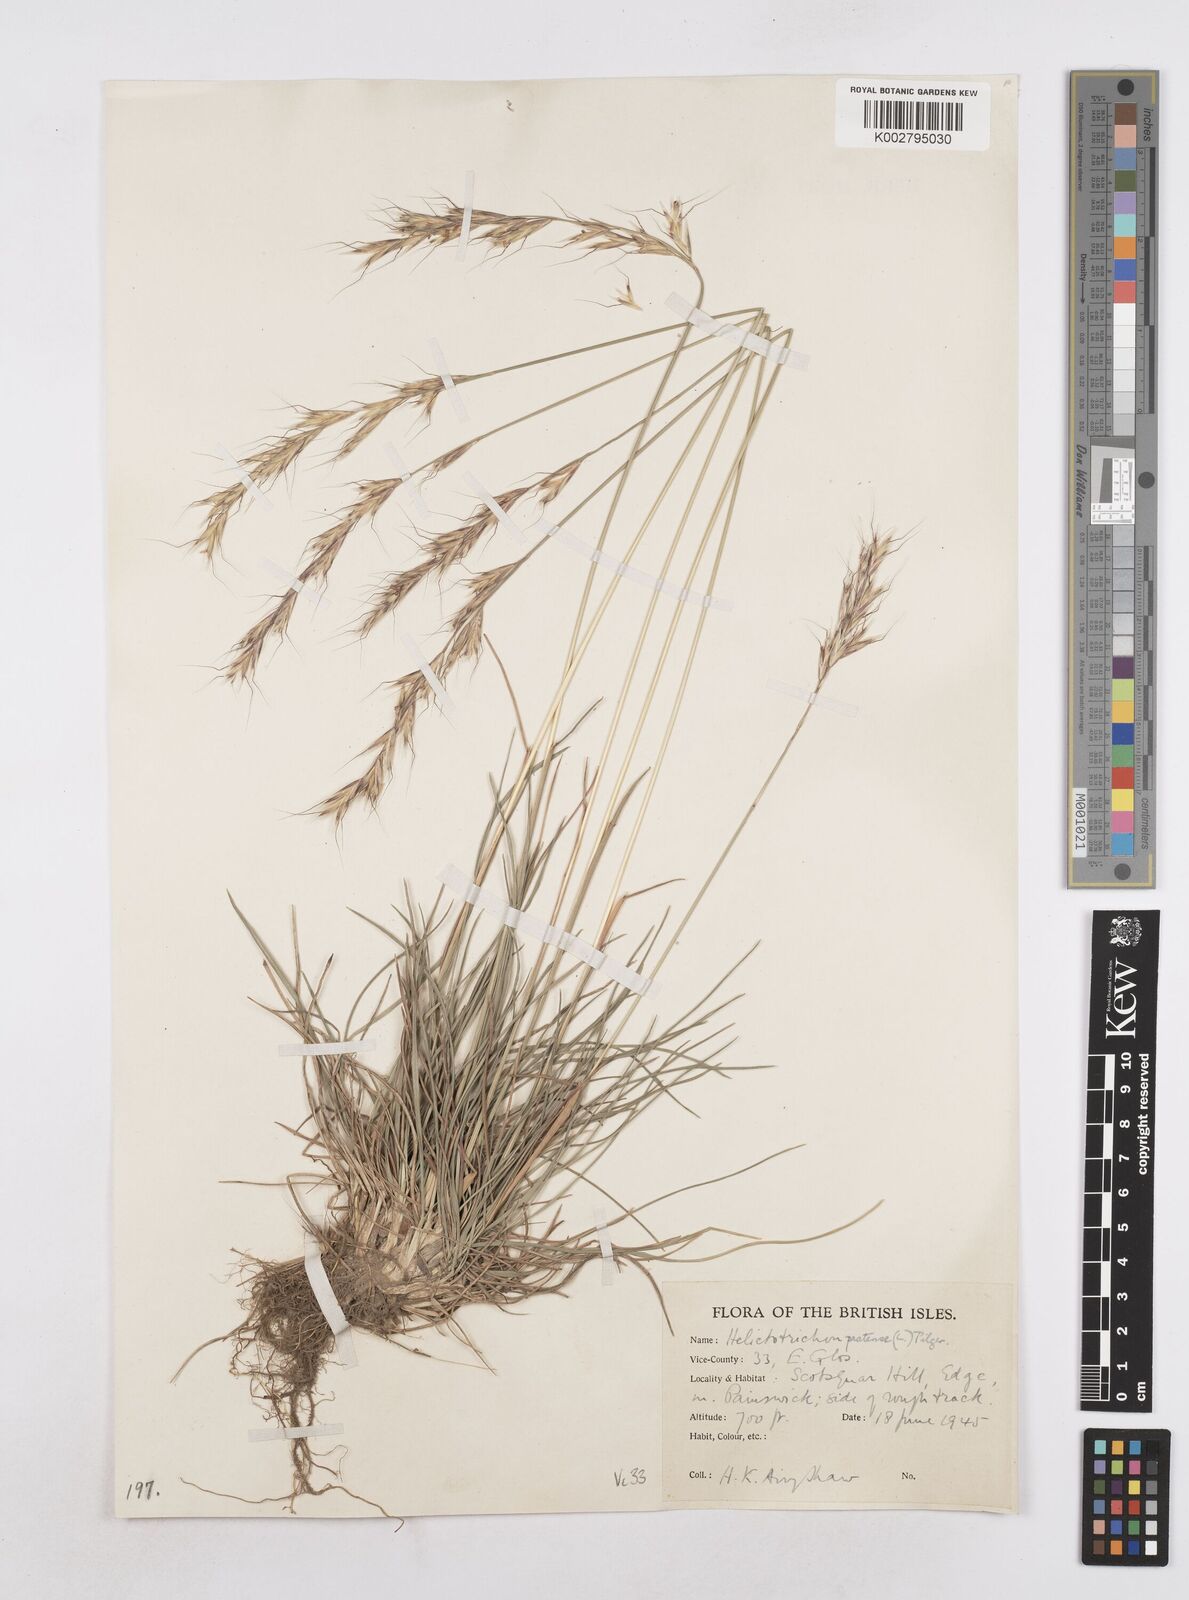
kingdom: Plantae
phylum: Tracheophyta
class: Liliopsida
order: Poales
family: Poaceae
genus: Helictochloa
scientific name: Helictochloa pratensis
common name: Meadow oat grass
